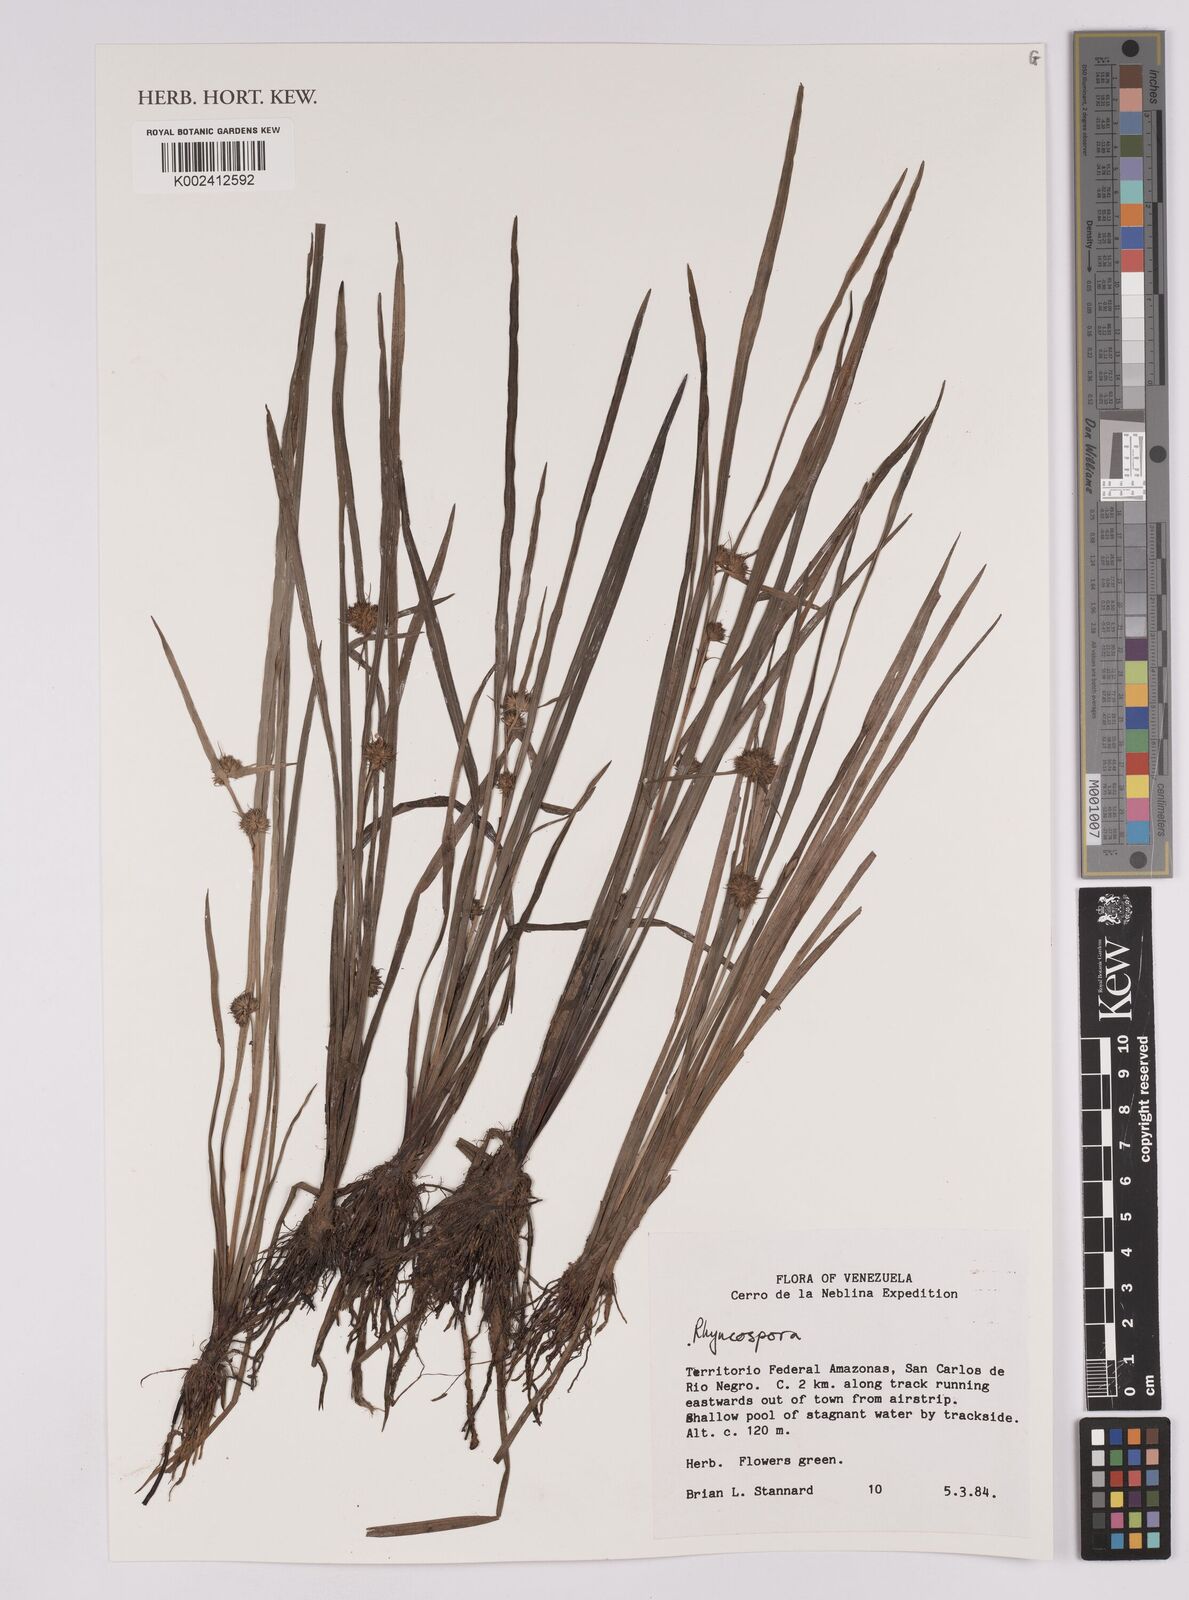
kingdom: Plantae
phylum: Tracheophyta
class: Liliopsida
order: Poales
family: Cyperaceae
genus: Rhynchospora
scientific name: Rhynchospora
